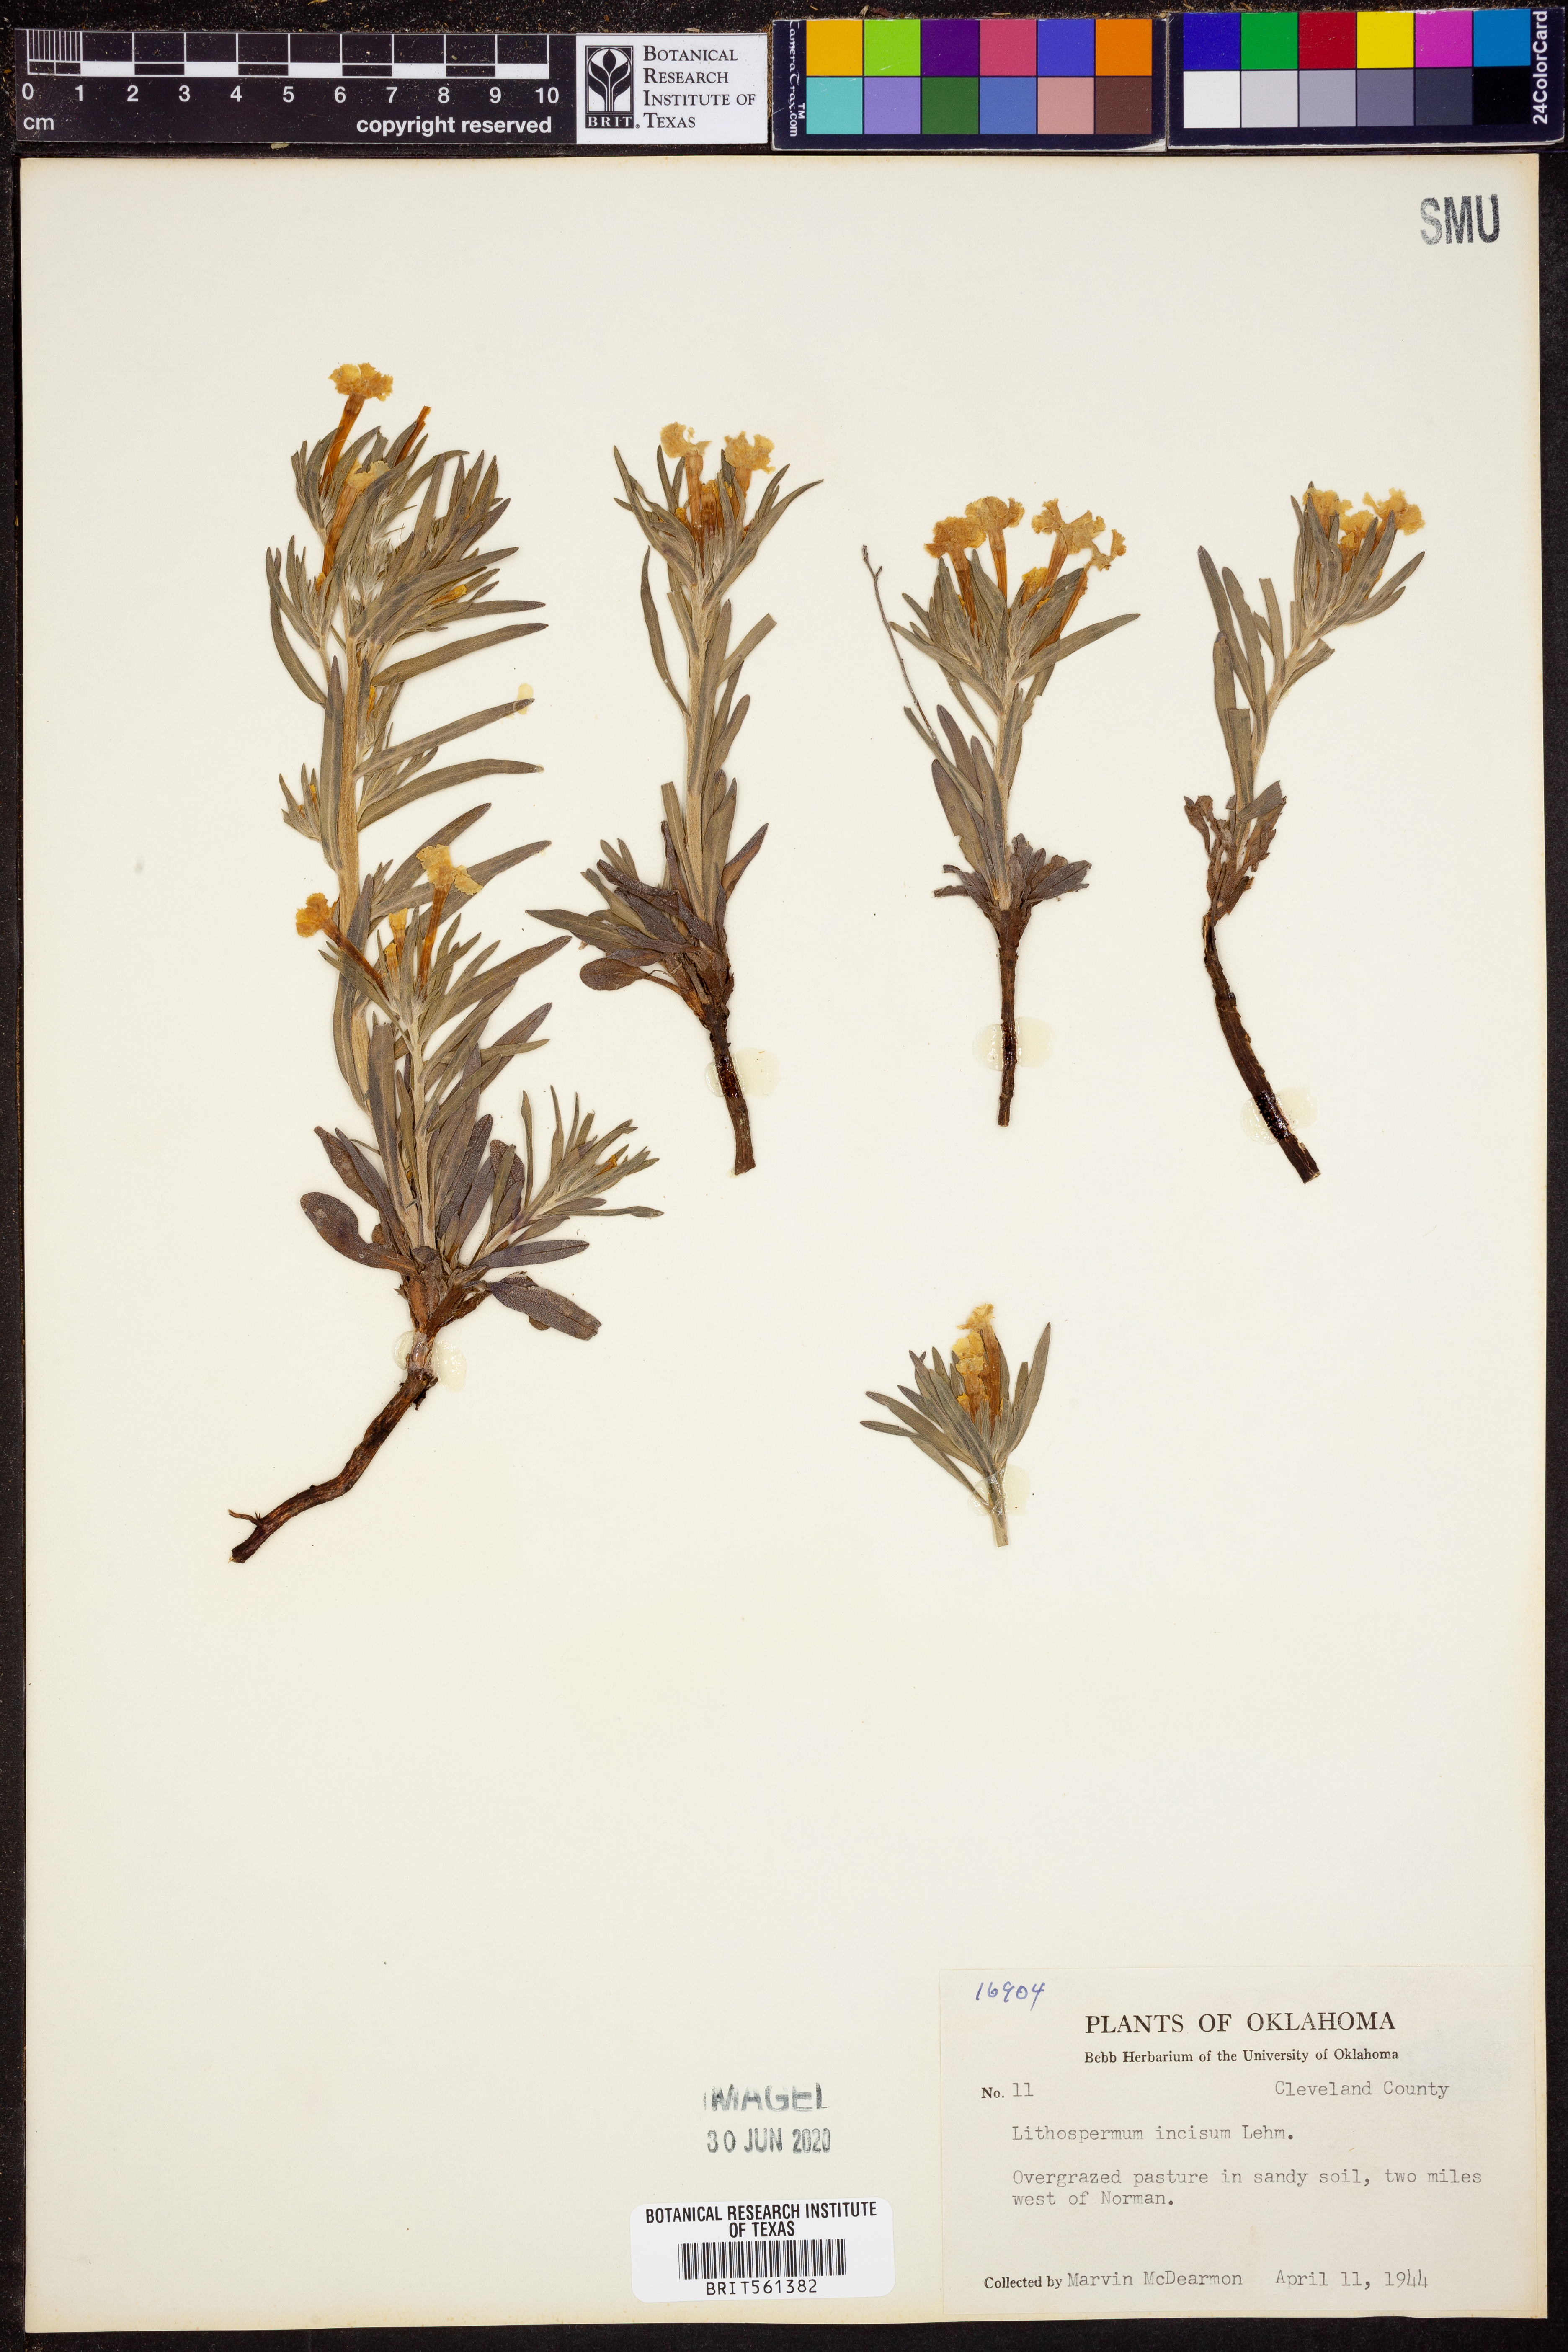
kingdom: Plantae
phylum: Tracheophyta
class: Magnoliopsida
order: Boraginales
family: Boraginaceae
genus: Lithospermum
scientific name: Lithospermum incisum
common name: Fringed gromwell
